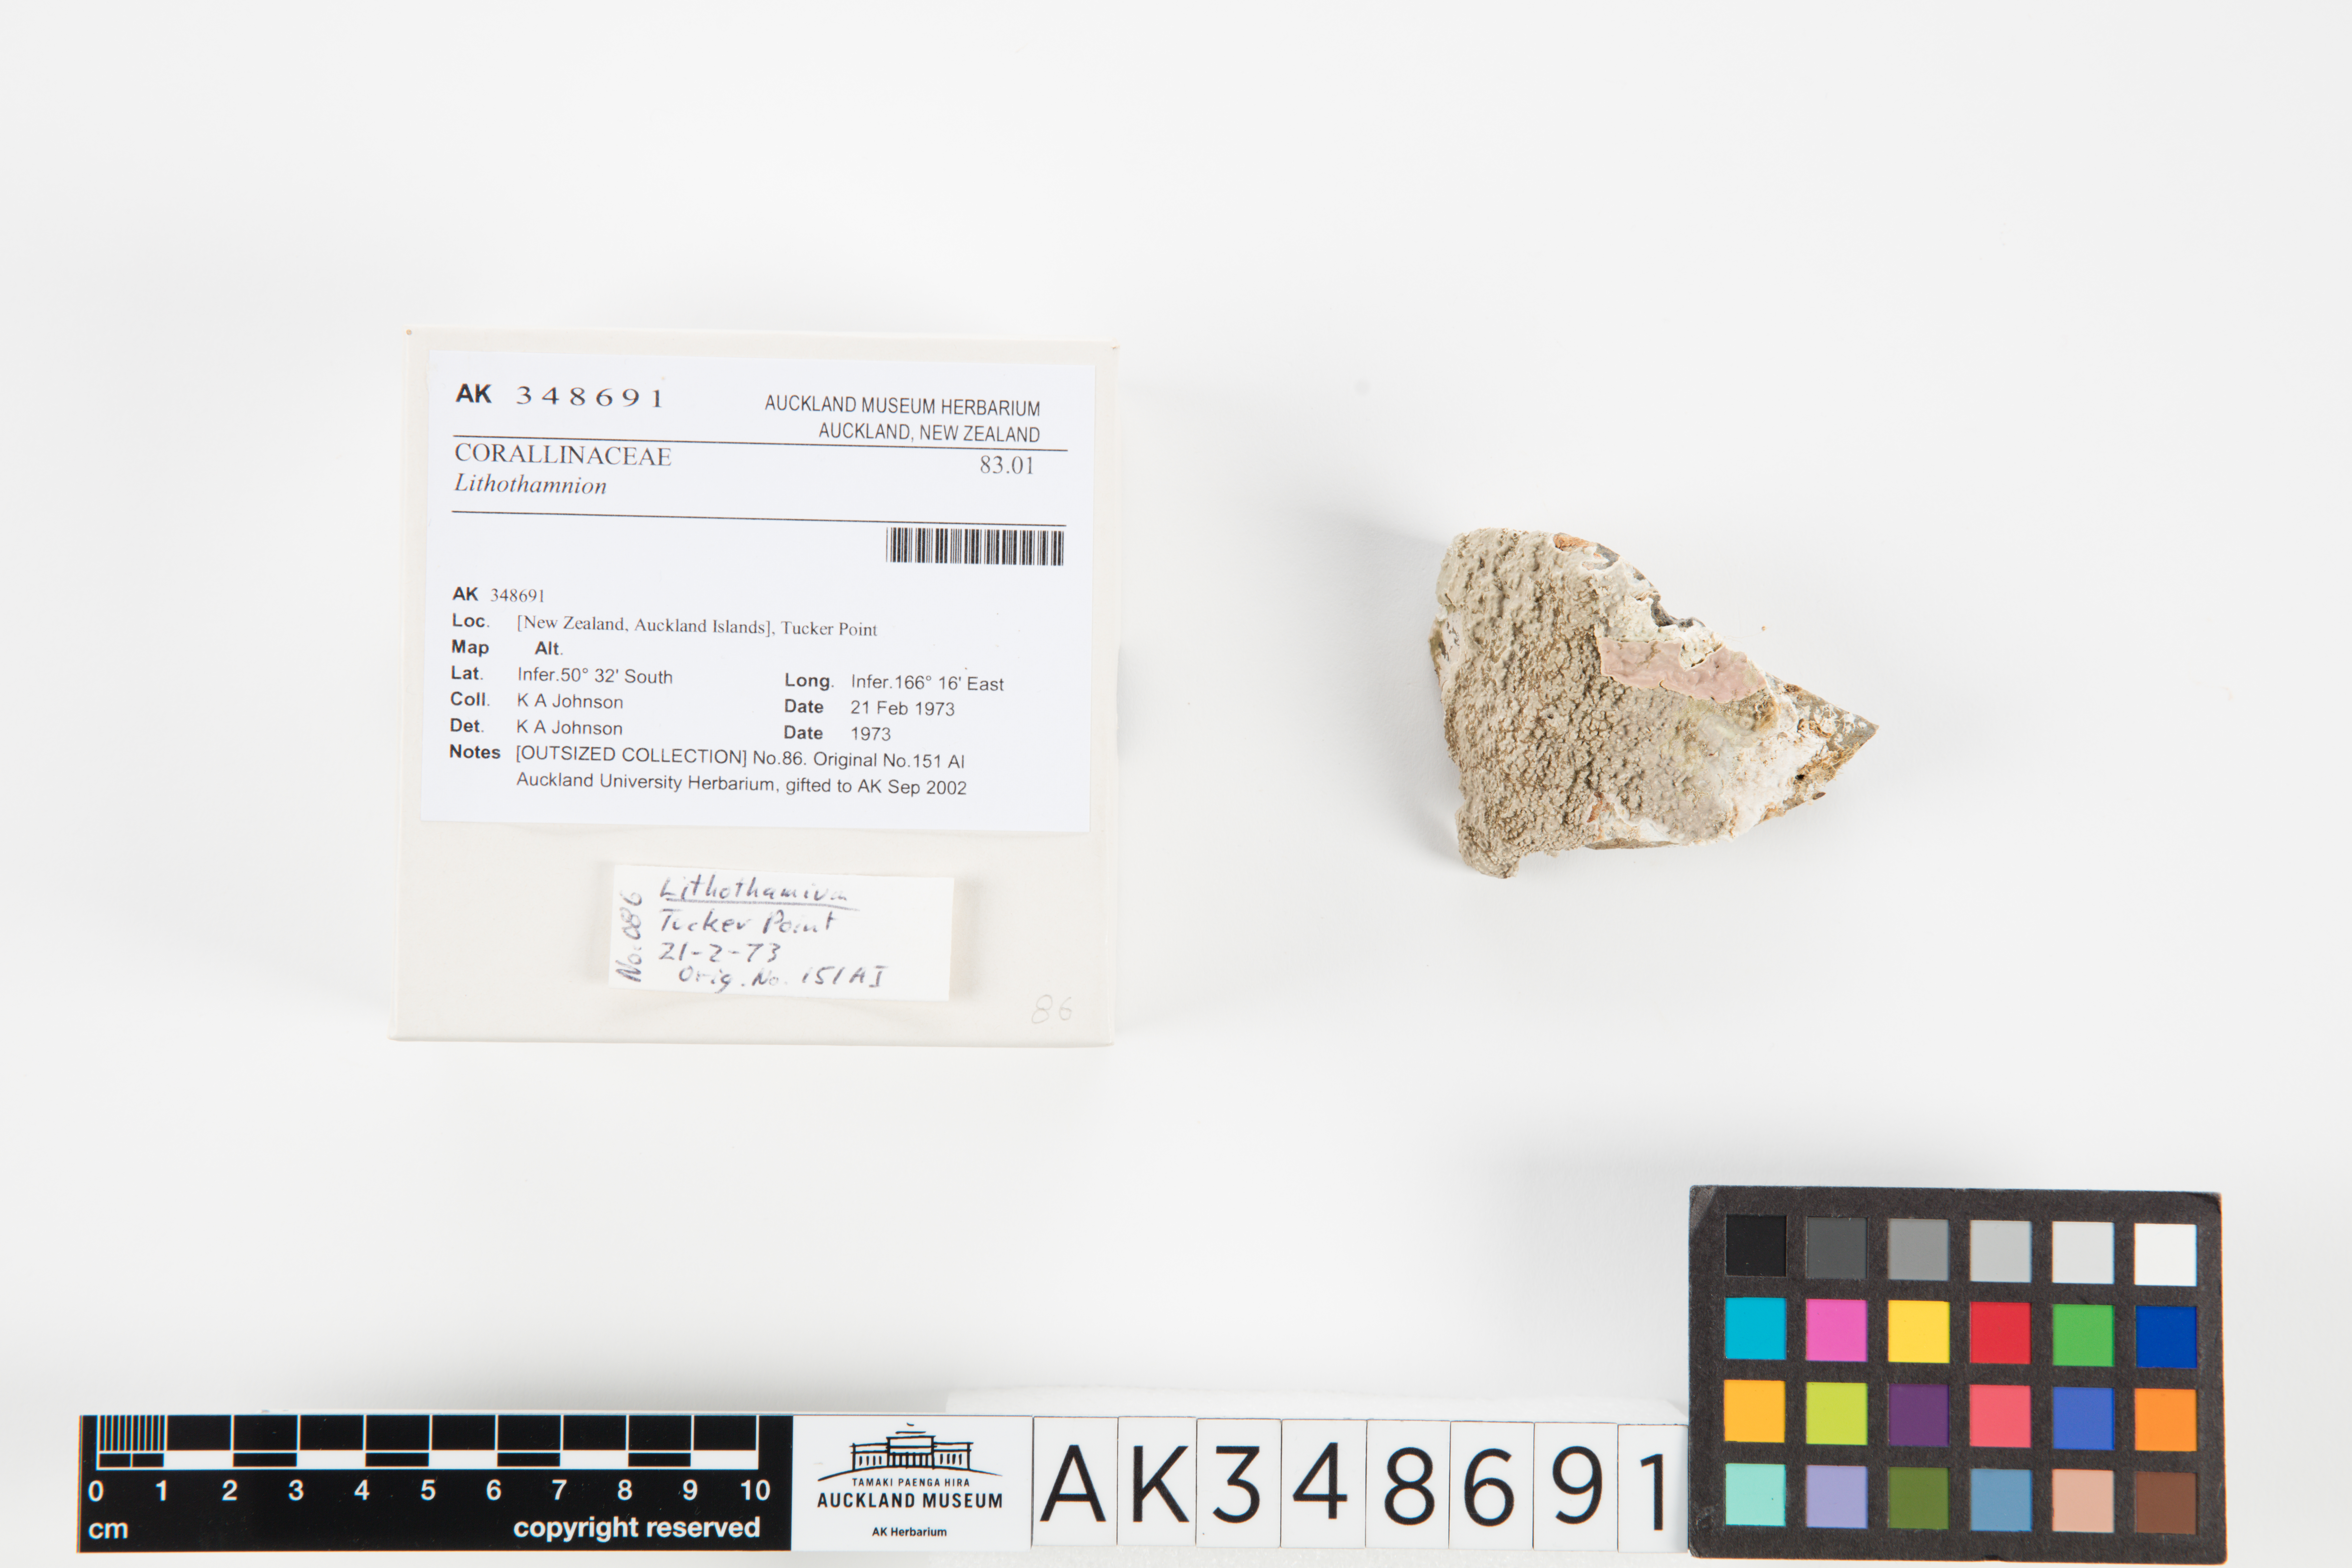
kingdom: Plantae
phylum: Rhodophyta
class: Florideophyceae
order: Corallinales
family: Hapalidiaceae
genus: Lithothamnion
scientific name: Lithothamnion
